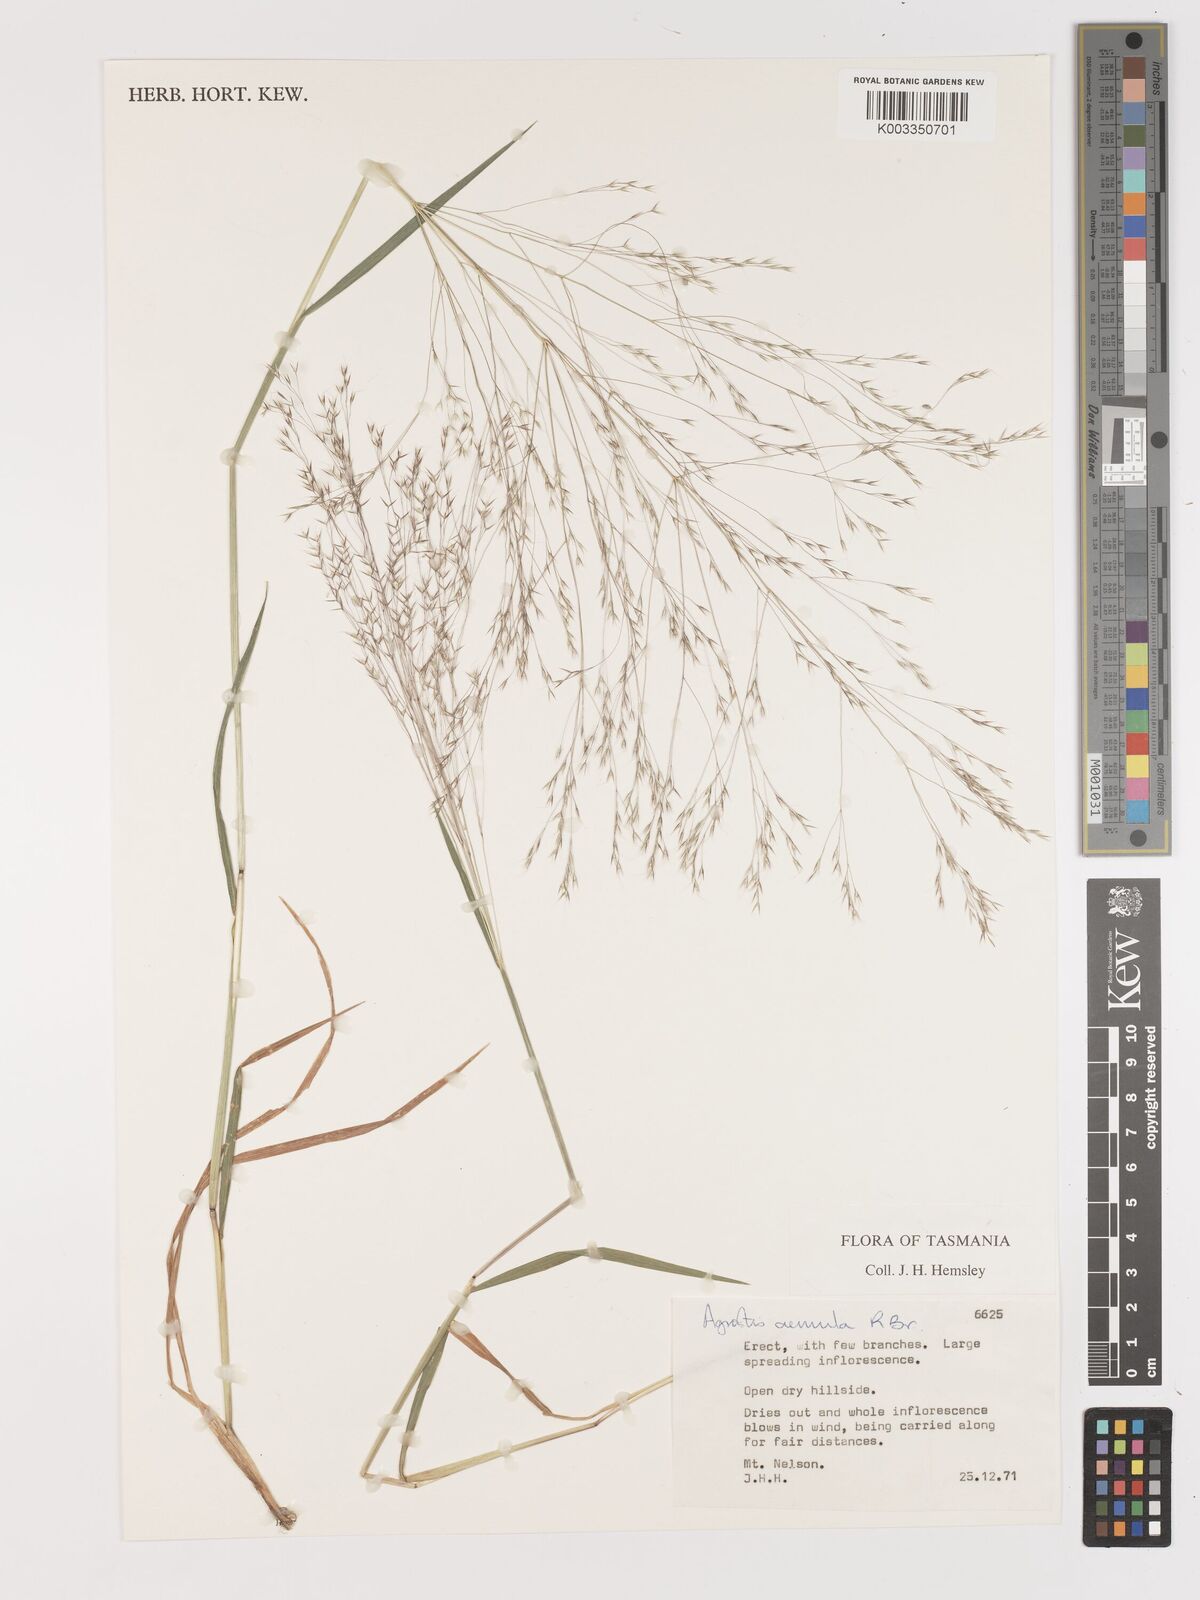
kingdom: Plantae
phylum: Tracheophyta
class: Liliopsida
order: Poales
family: Poaceae
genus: Lachnagrostis
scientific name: Lachnagrostis aemula
